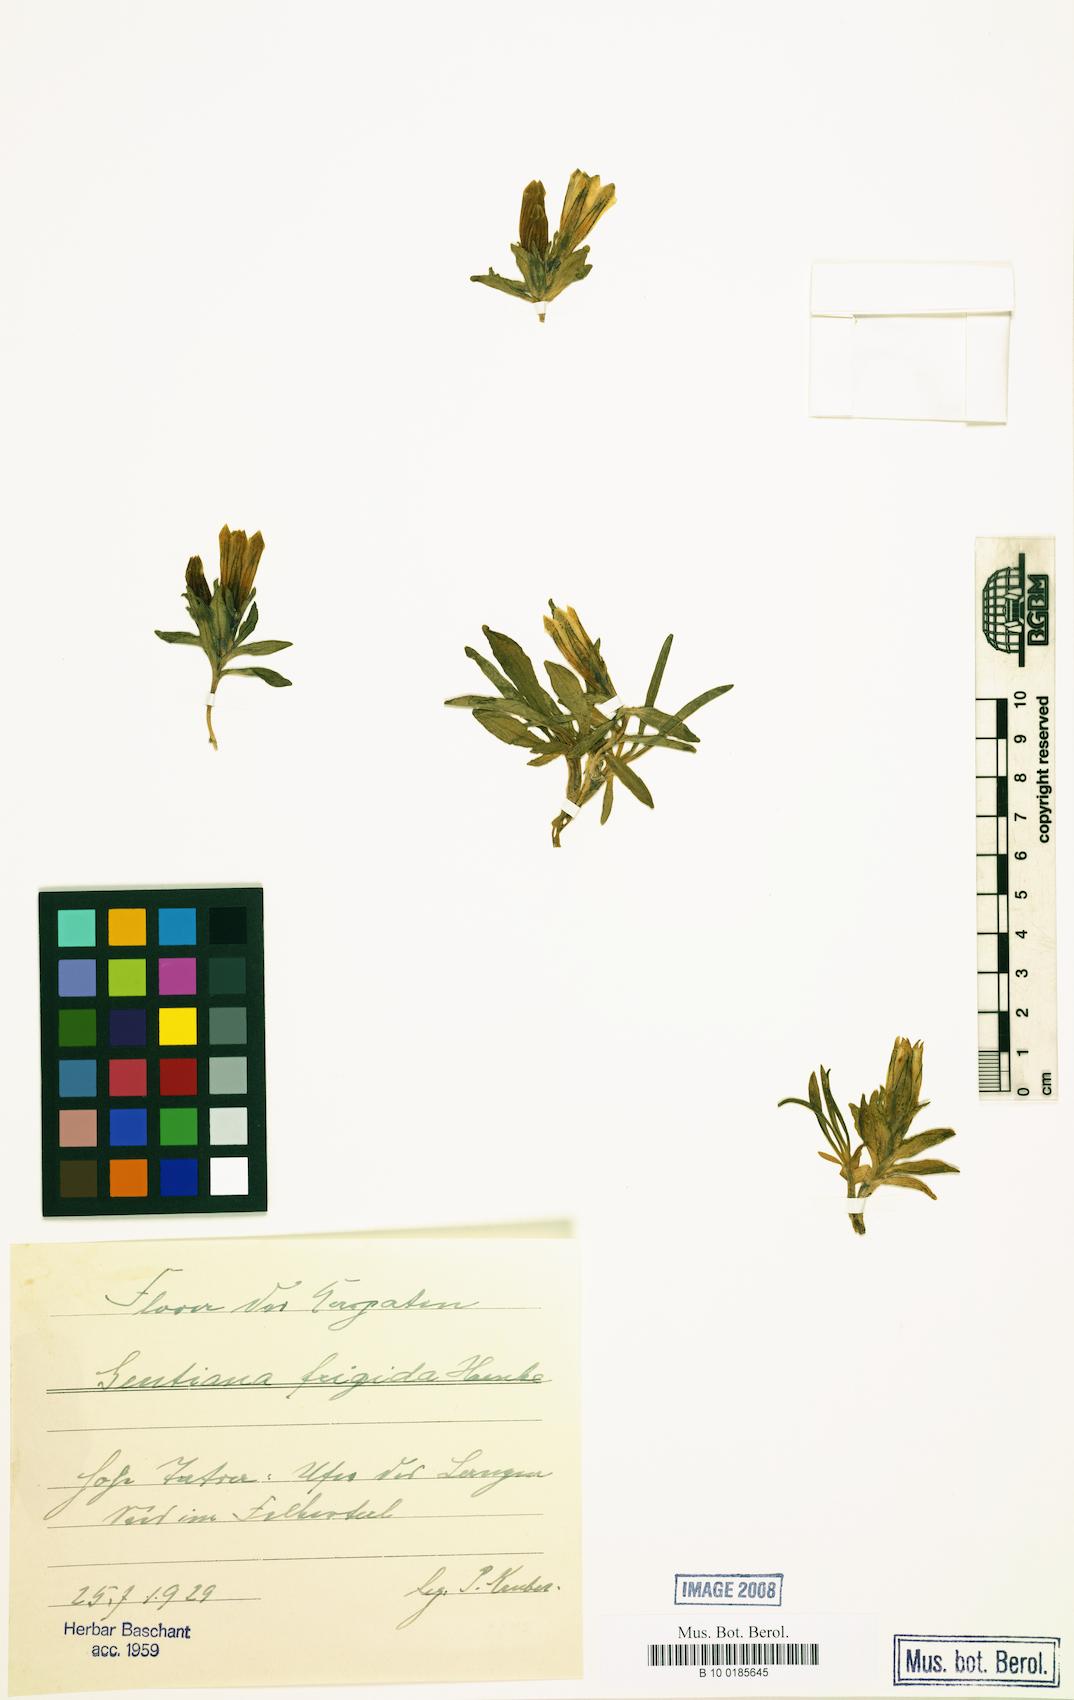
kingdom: Plantae
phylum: Tracheophyta
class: Magnoliopsida
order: Gentianales
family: Gentianaceae
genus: Gentiana
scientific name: Gentiana frigida
